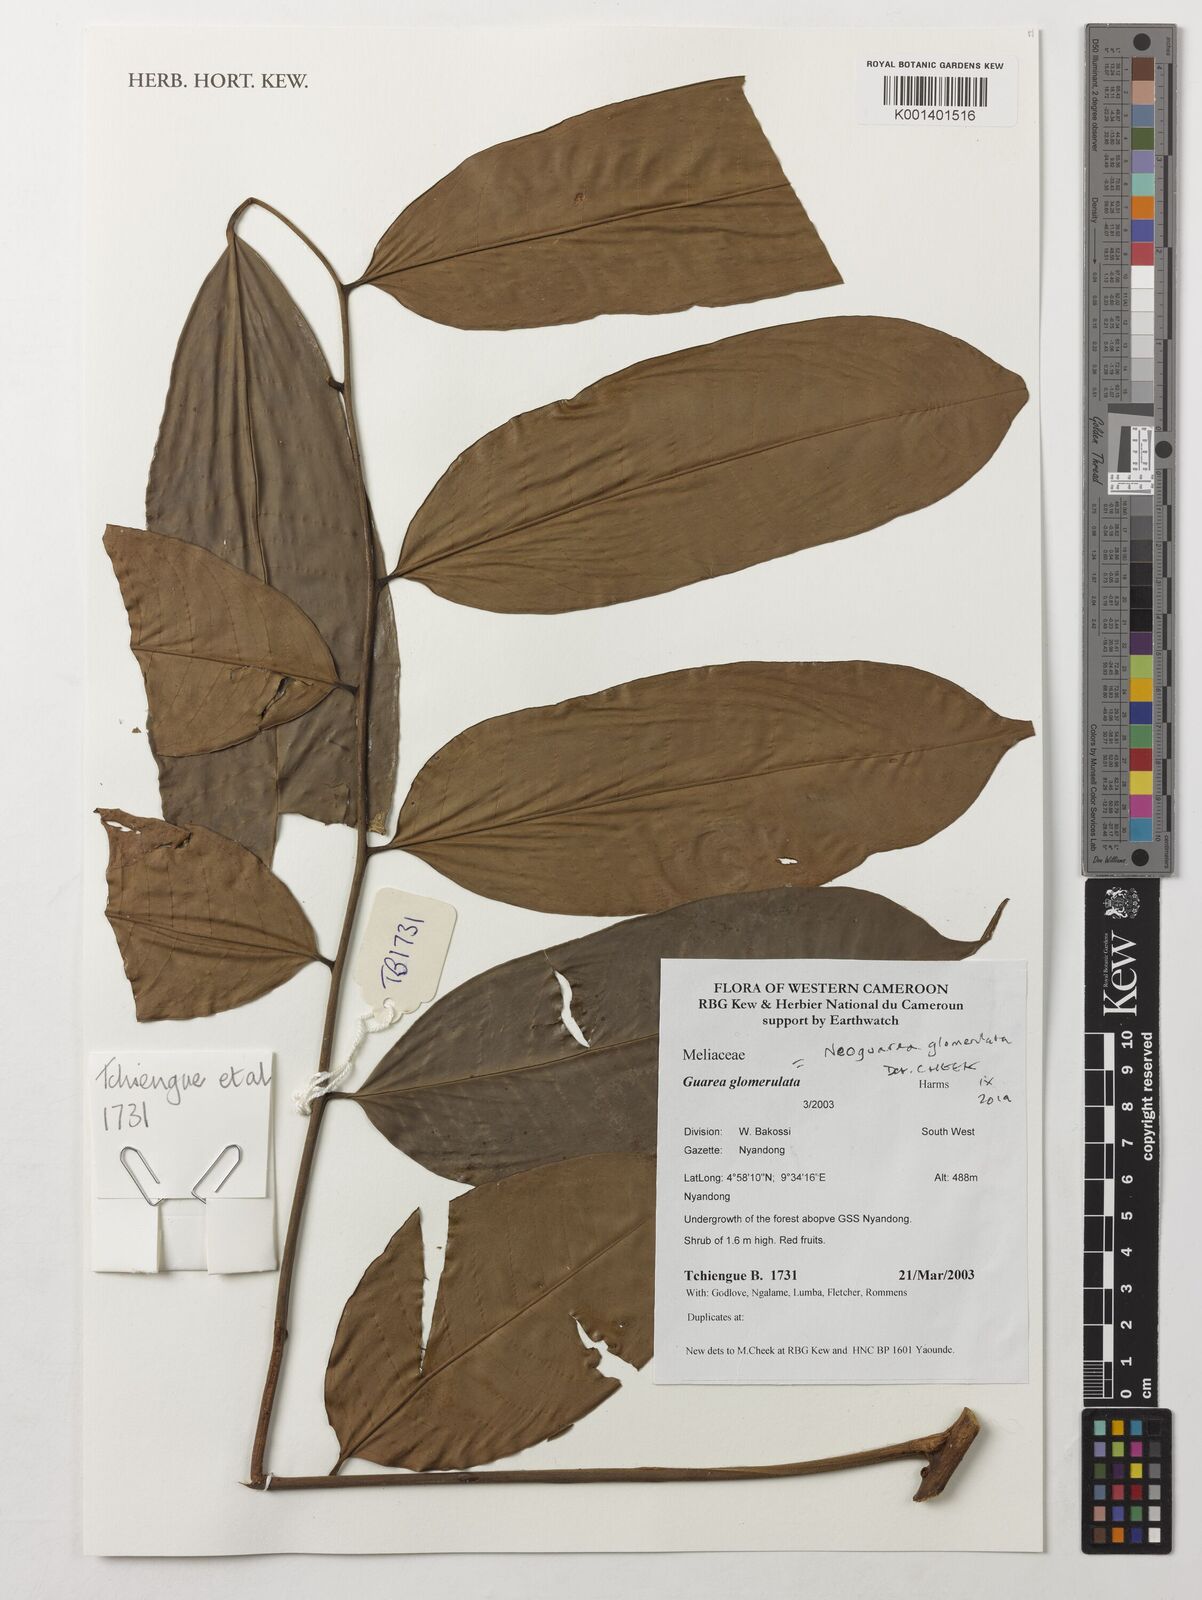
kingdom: Plantae
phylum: Tracheophyta
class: Magnoliopsida
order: Sapindales
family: Meliaceae
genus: Neoguarea
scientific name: Neoguarea glomerulata
